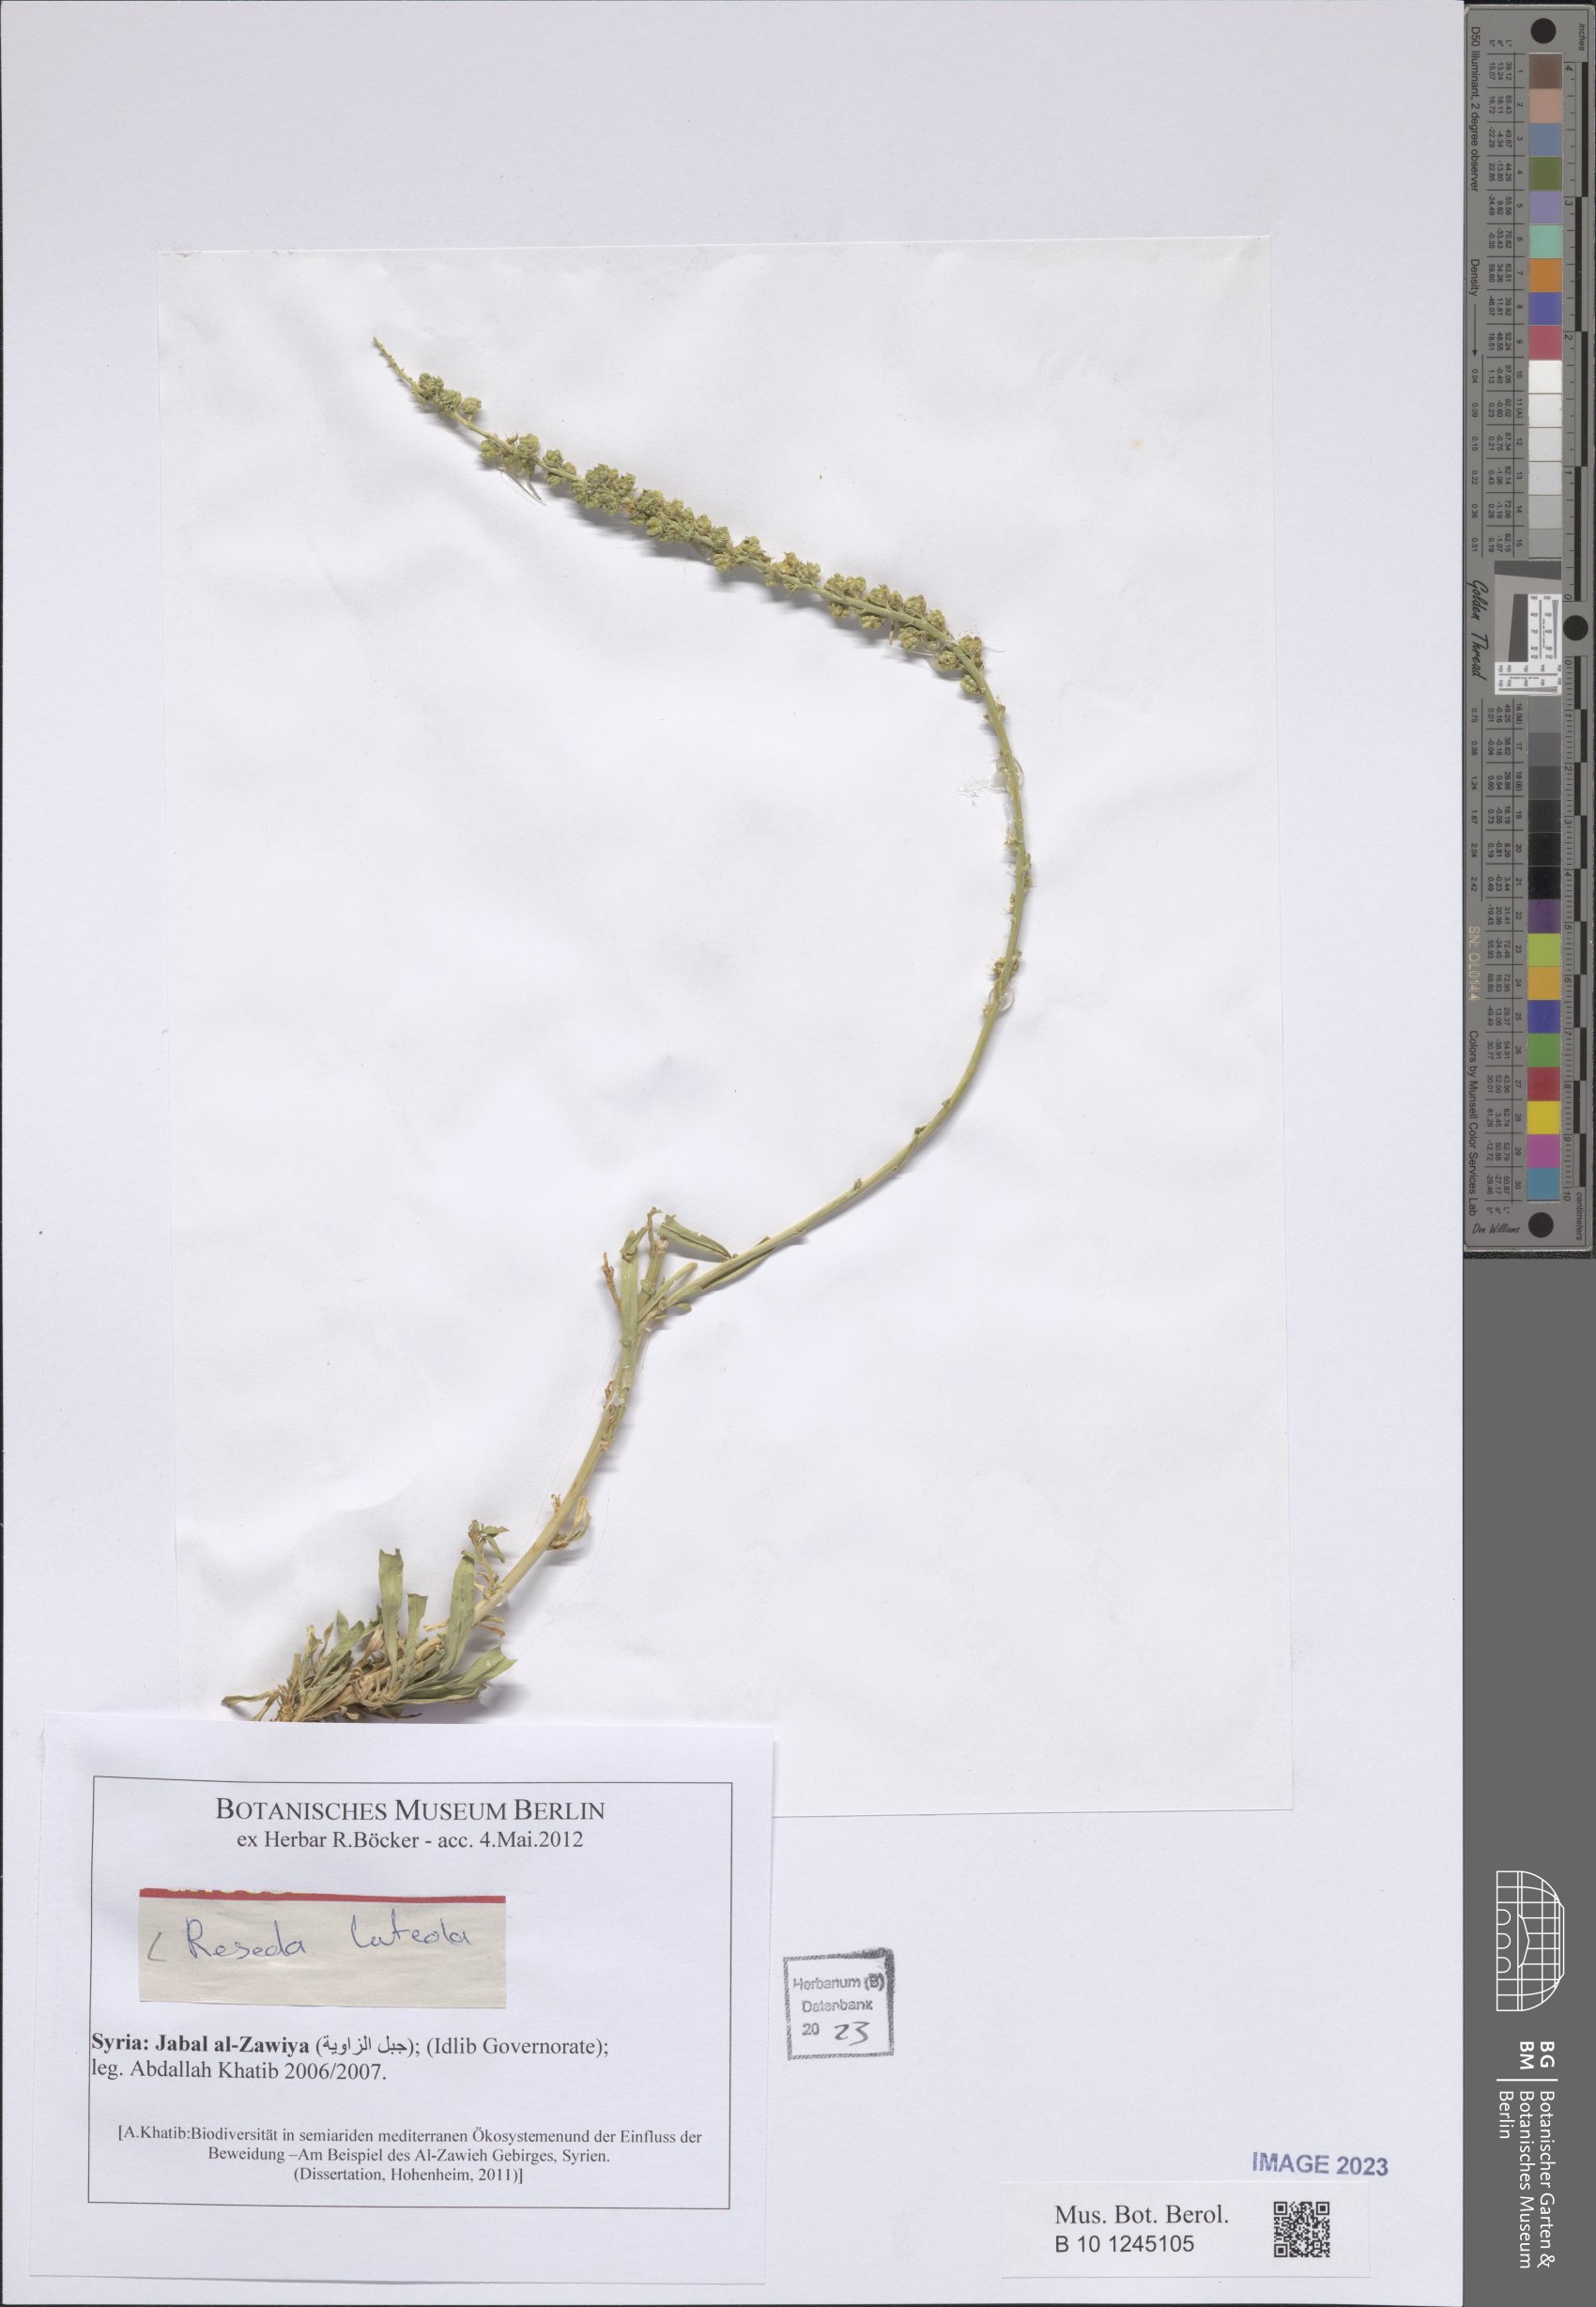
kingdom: Plantae
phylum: Tracheophyta
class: Magnoliopsida
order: Brassicales
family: Resedaceae
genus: Reseda
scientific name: Reseda luteola
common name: Weld
